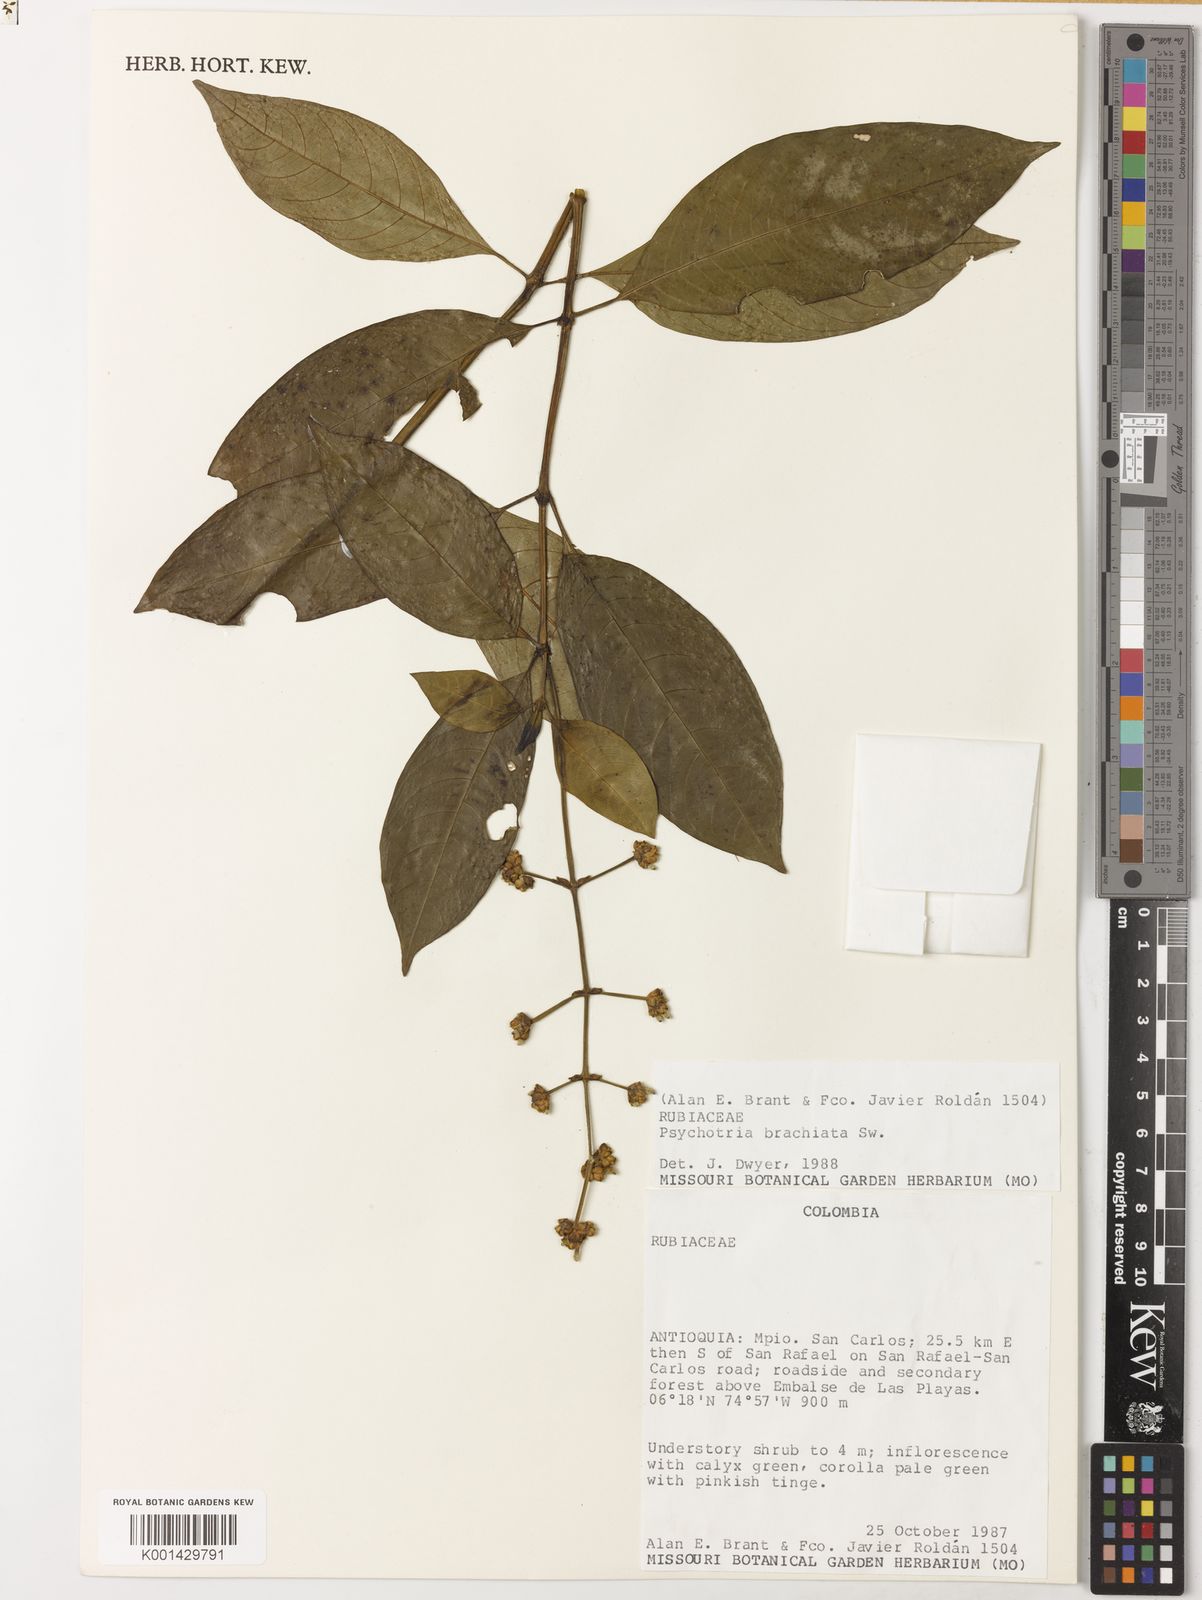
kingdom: Plantae
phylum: Tracheophyta
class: Magnoliopsida
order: Gentianales
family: Rubiaceae
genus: Palicourea
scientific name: Palicourea brachiata
